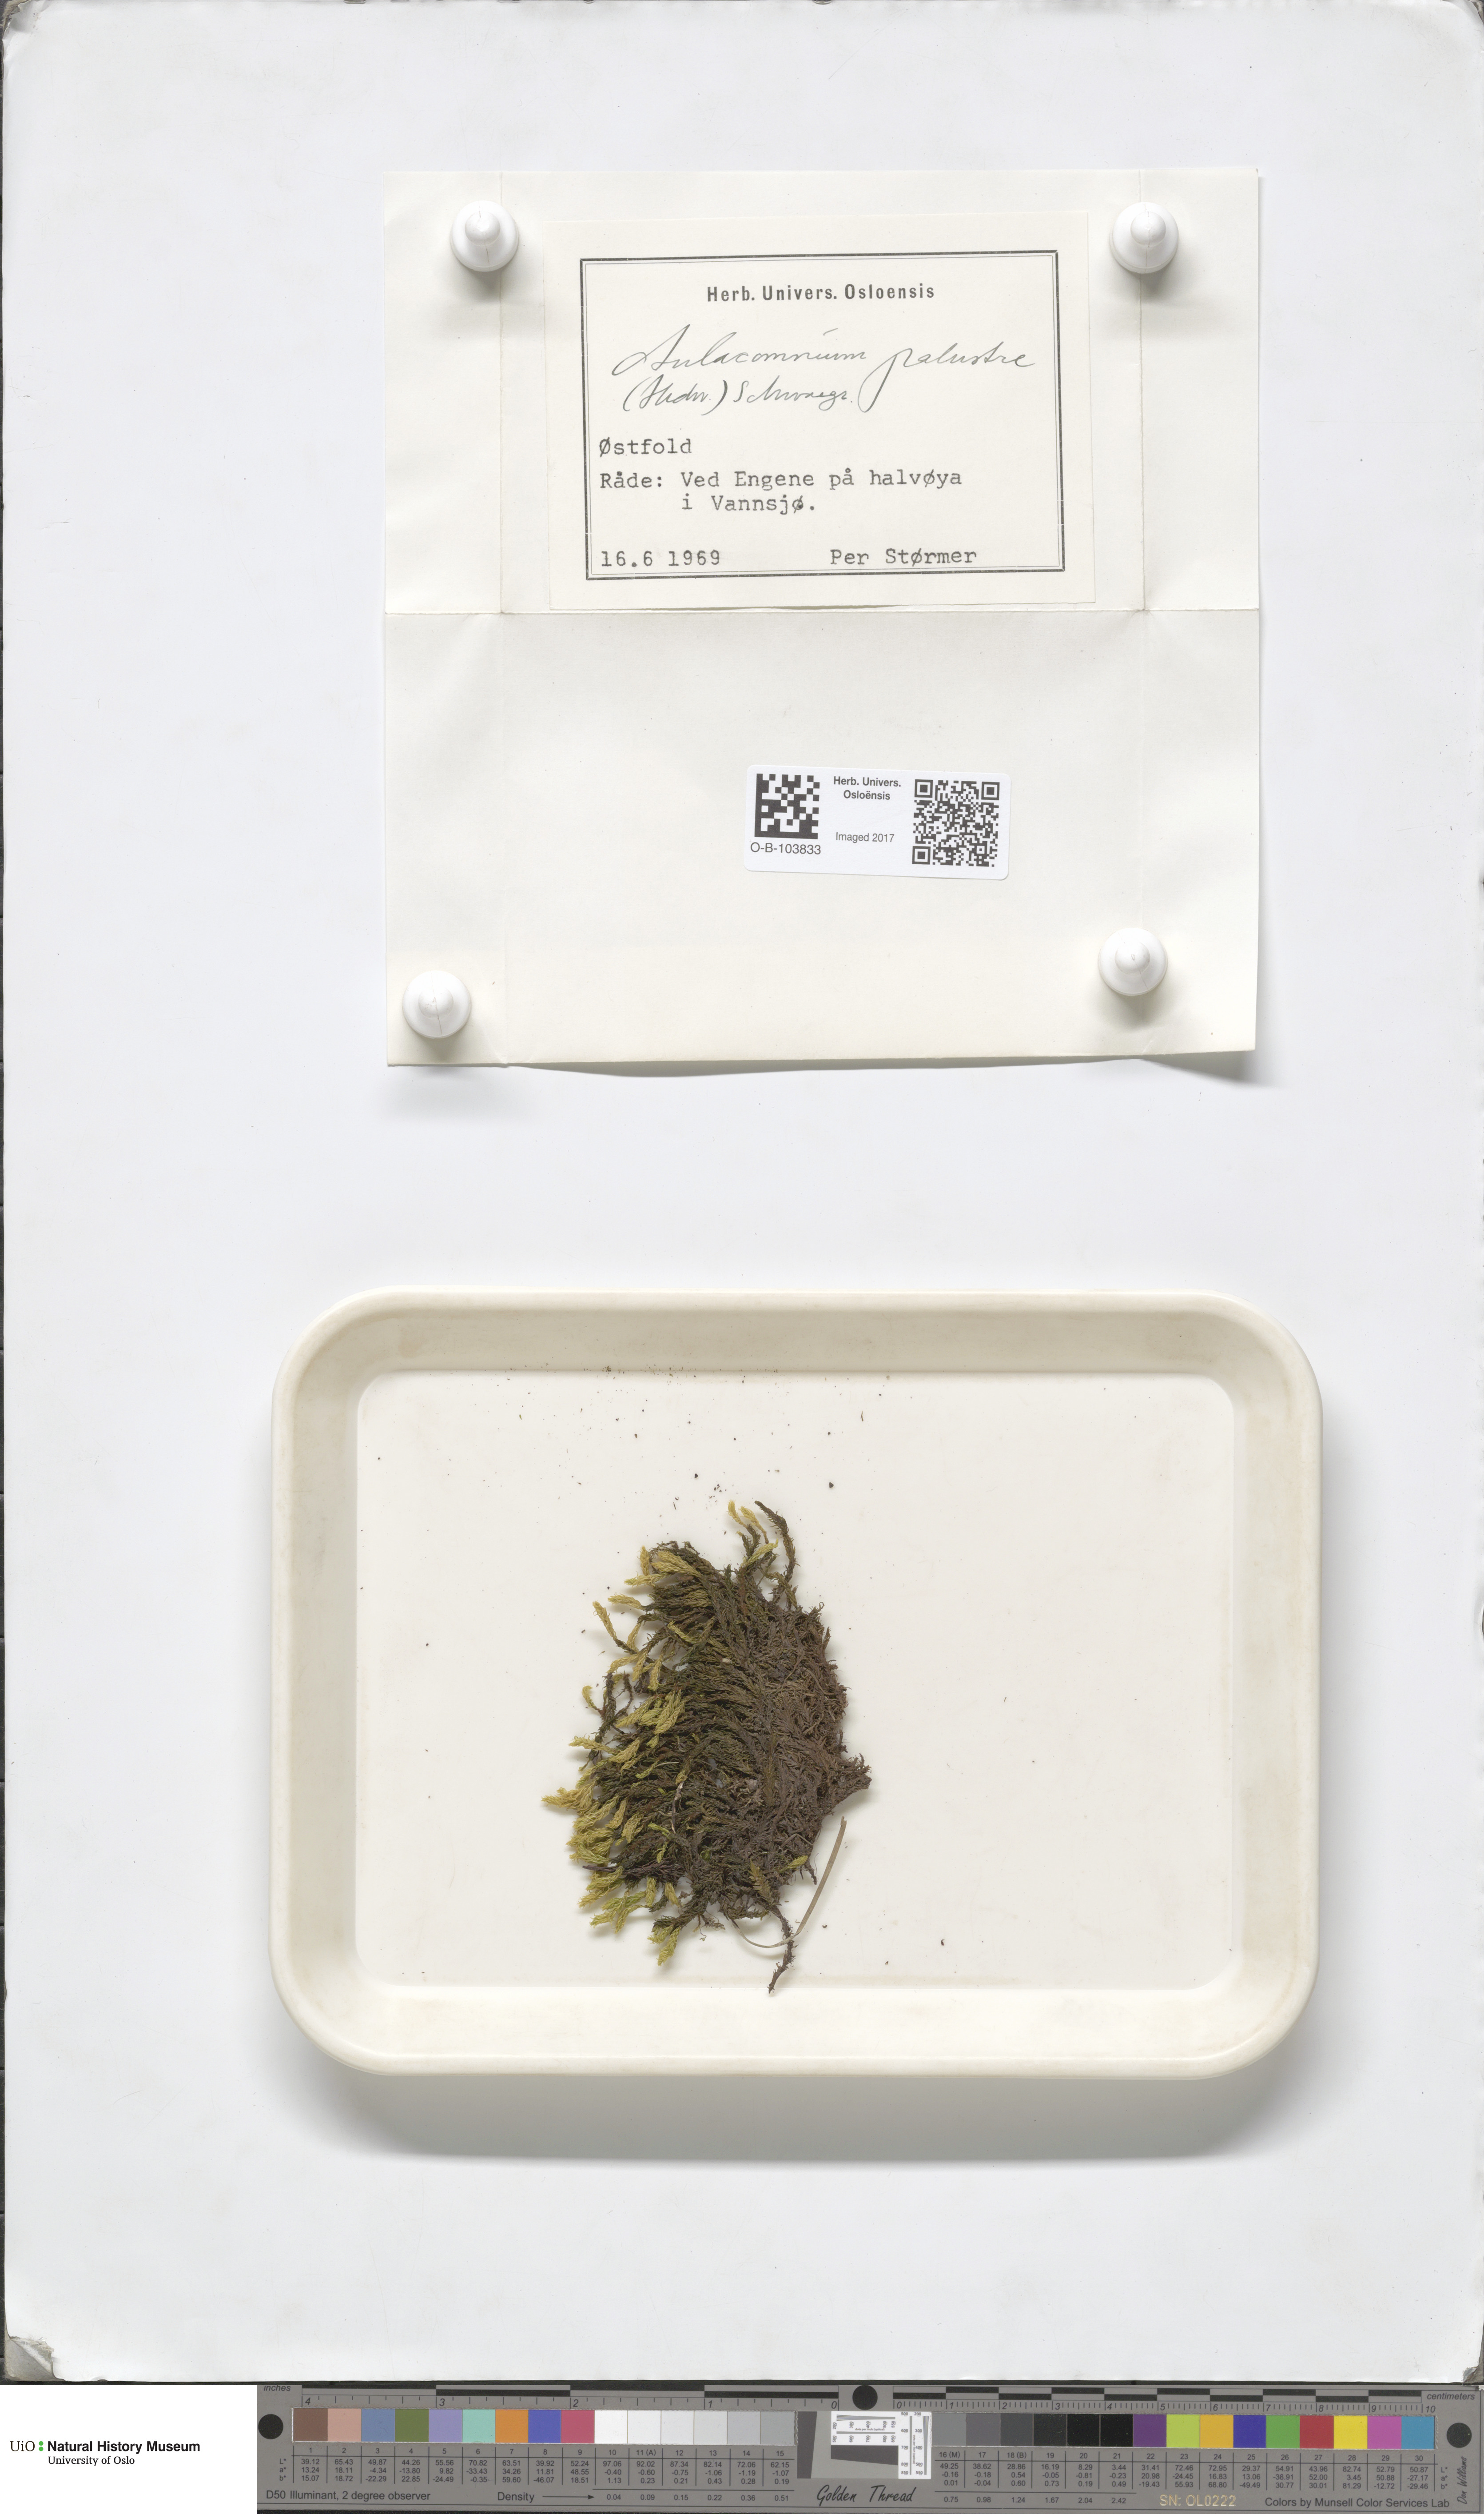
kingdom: Plantae
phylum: Bryophyta
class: Bryopsida
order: Aulacomniales
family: Aulacomniaceae
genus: Aulacomnium
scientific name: Aulacomnium palustre
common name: Bog groove-moss
